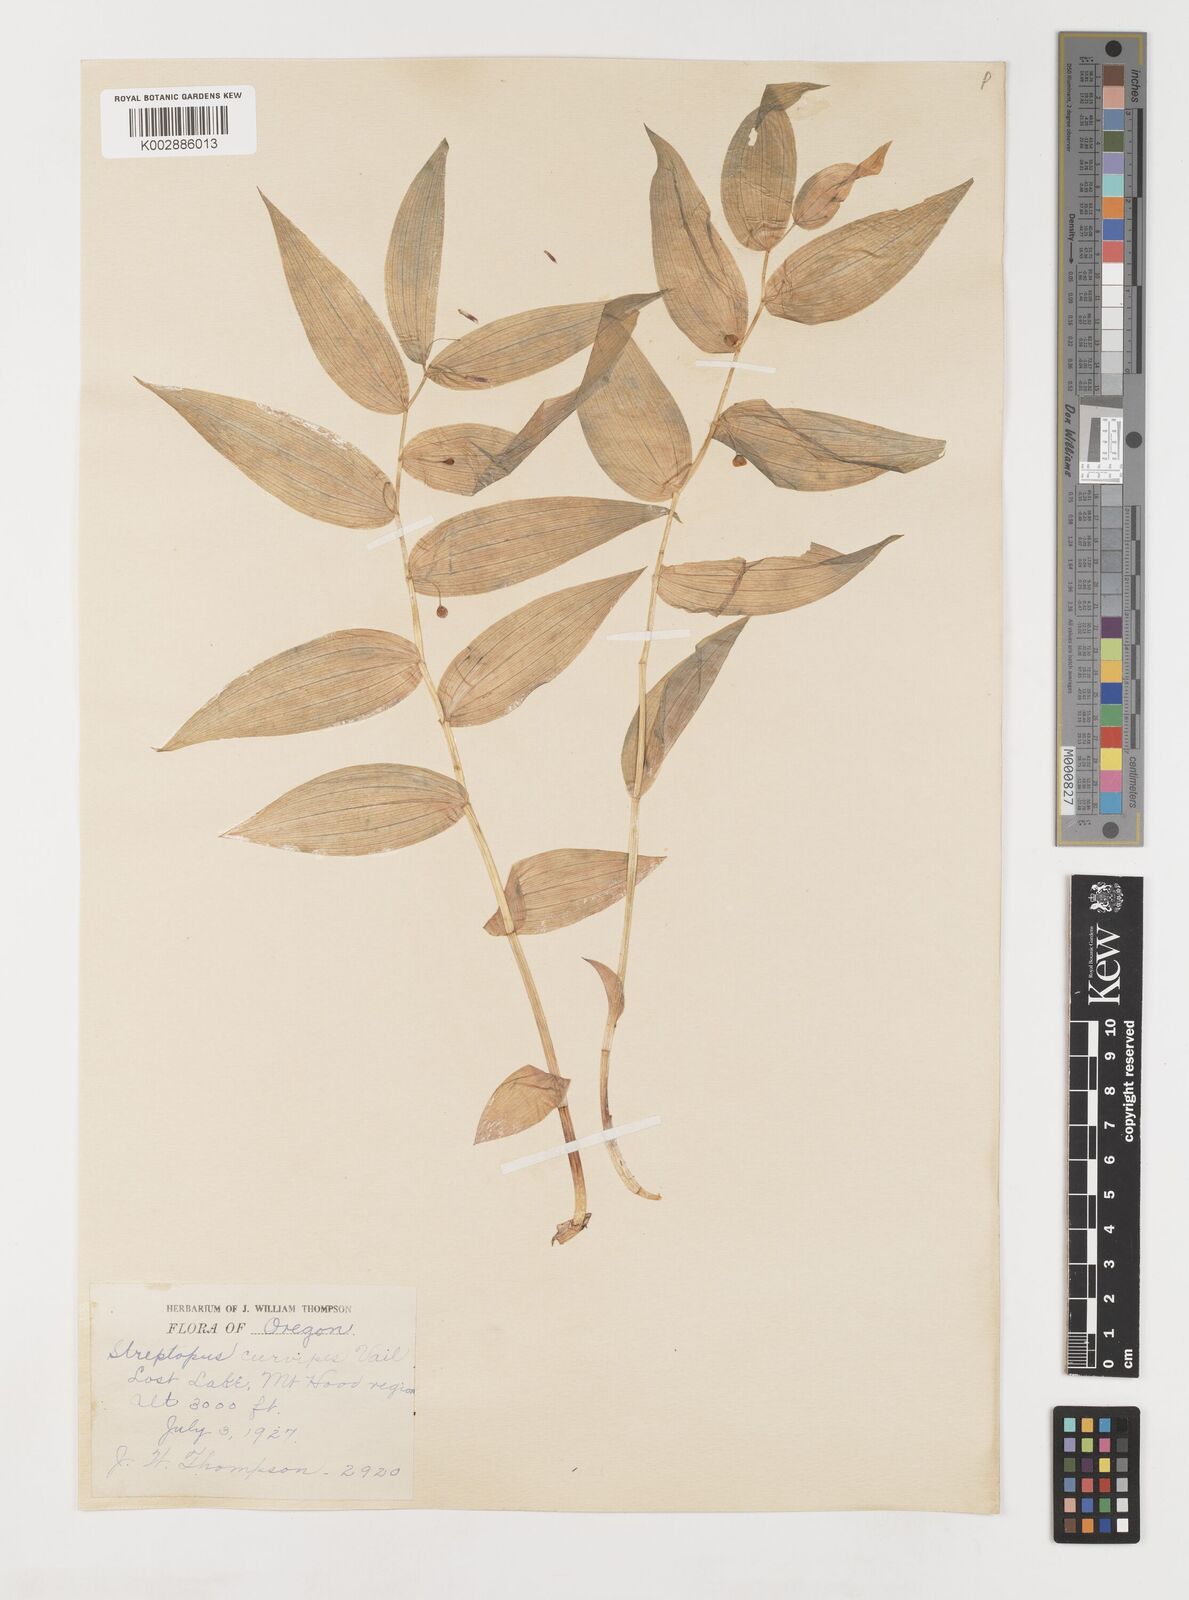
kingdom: Plantae
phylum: Tracheophyta
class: Liliopsida
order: Liliales
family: Liliaceae
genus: Streptopus
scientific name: Streptopus lanceolatus
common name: Rose mandarin
